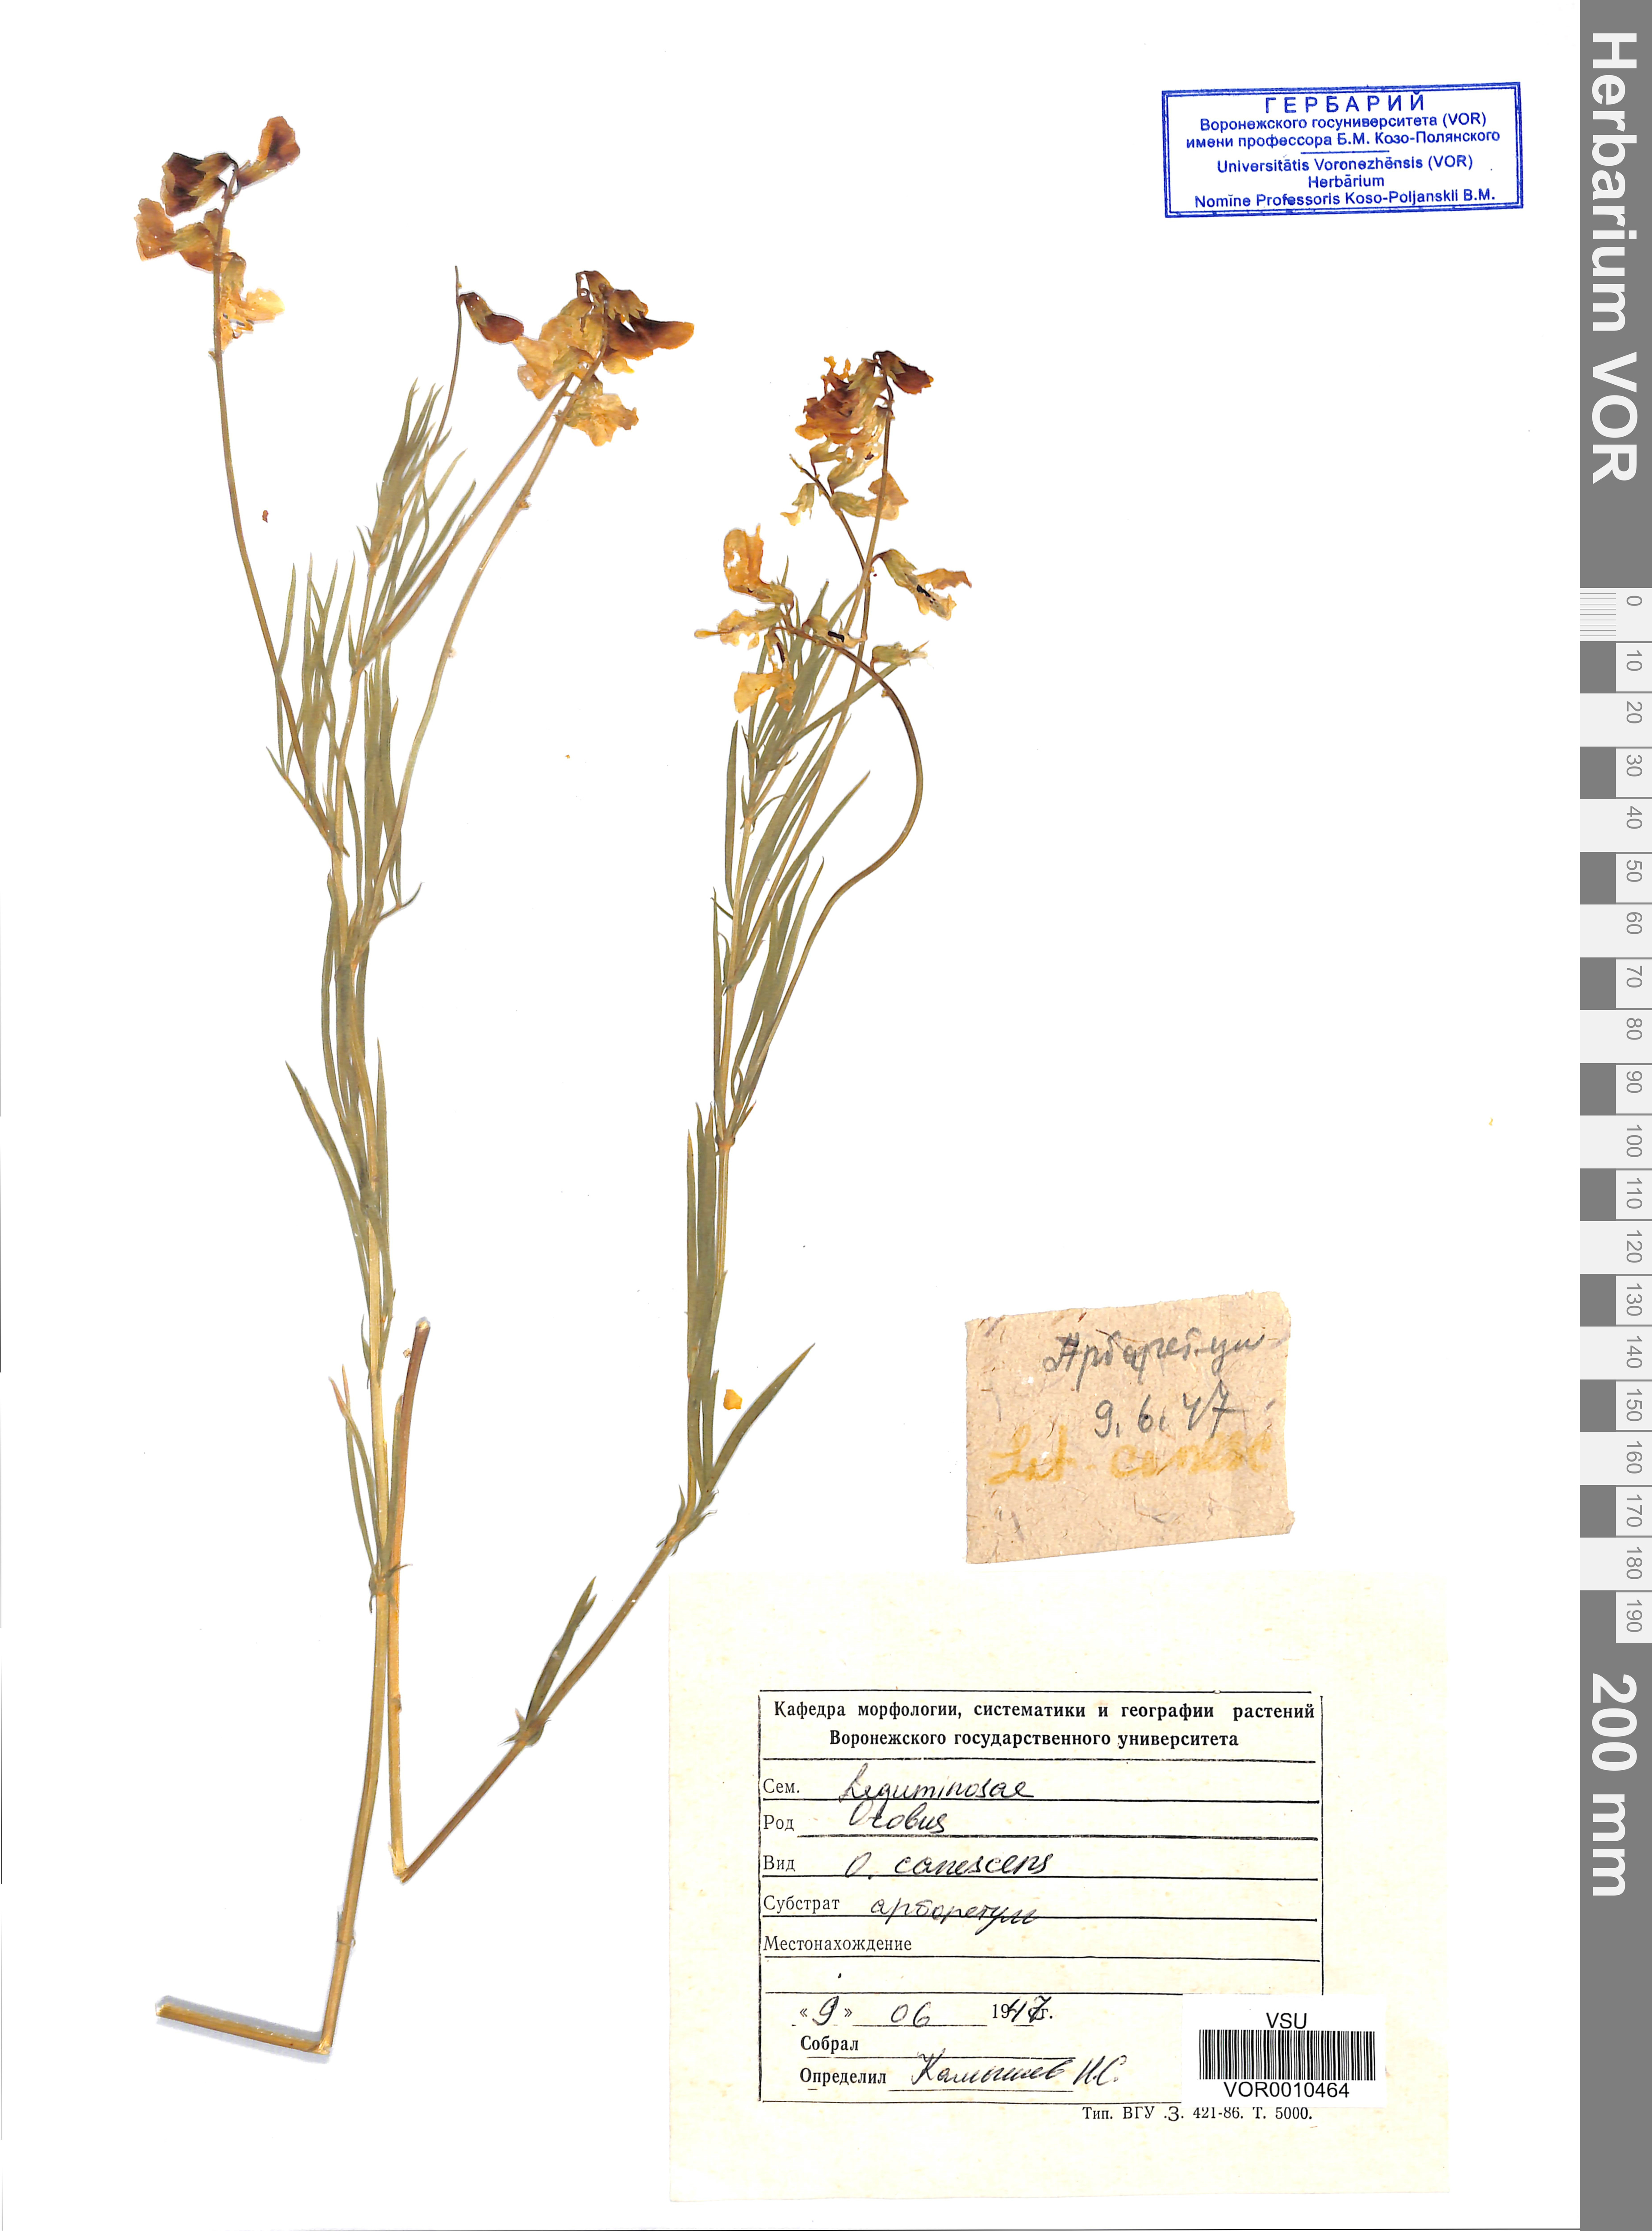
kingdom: Plantae
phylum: Tracheophyta
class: Magnoliopsida
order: Fabales
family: Fabaceae
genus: Lathyrus
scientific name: Lathyrus filiformis
